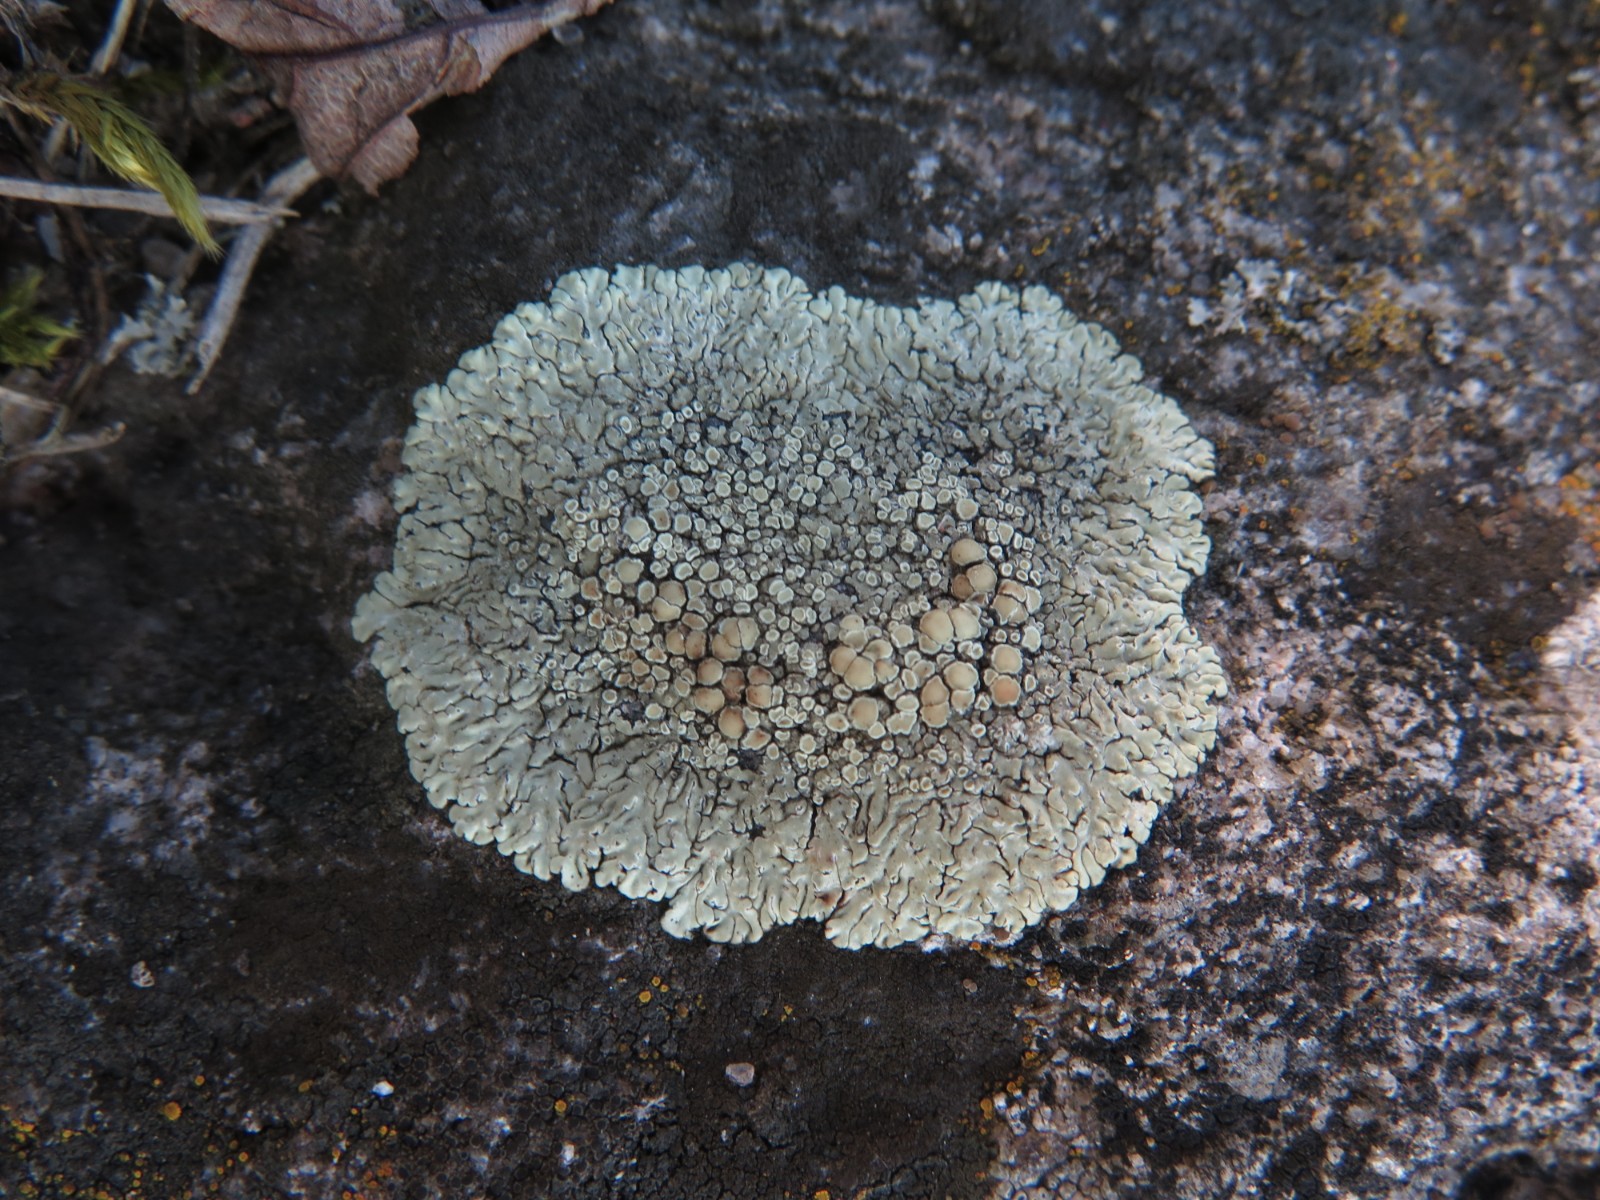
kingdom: Fungi
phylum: Ascomycota
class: Lecanoromycetes
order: Lecanorales
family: Lecanoraceae
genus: Protoparmeliopsis
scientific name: Protoparmeliopsis muralis
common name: randfliget kantskivelav
